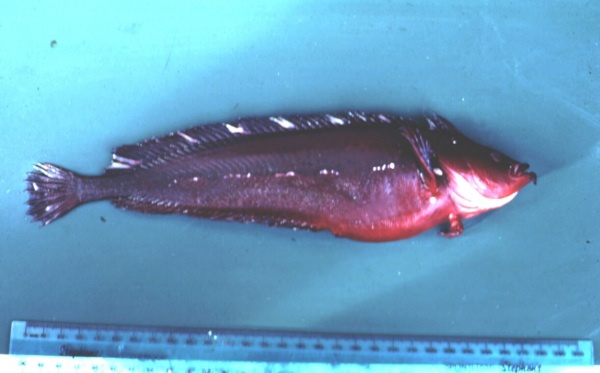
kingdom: Animalia
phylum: Chordata
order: Perciformes
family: Clinidae
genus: Pavoclinus
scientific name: Pavoclinus mentalis
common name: Bearded klipfish
